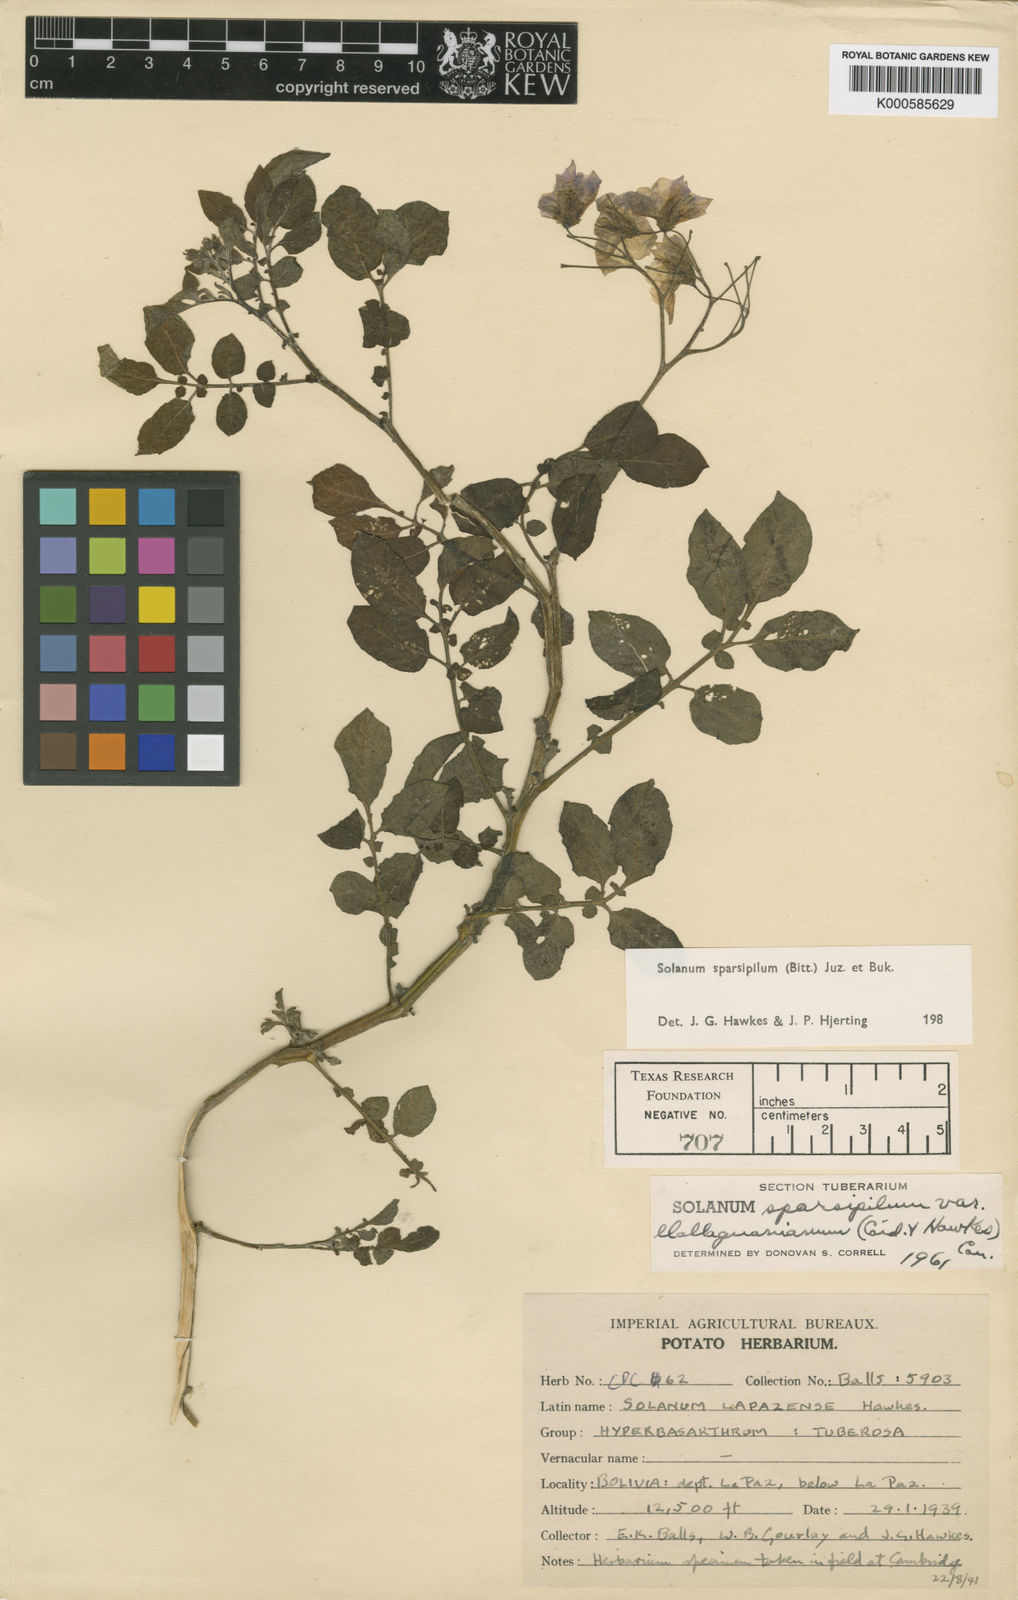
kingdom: Plantae
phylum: Tracheophyta
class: Magnoliopsida
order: Solanales
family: Solanaceae
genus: Solanum
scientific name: Solanum brevicaule
